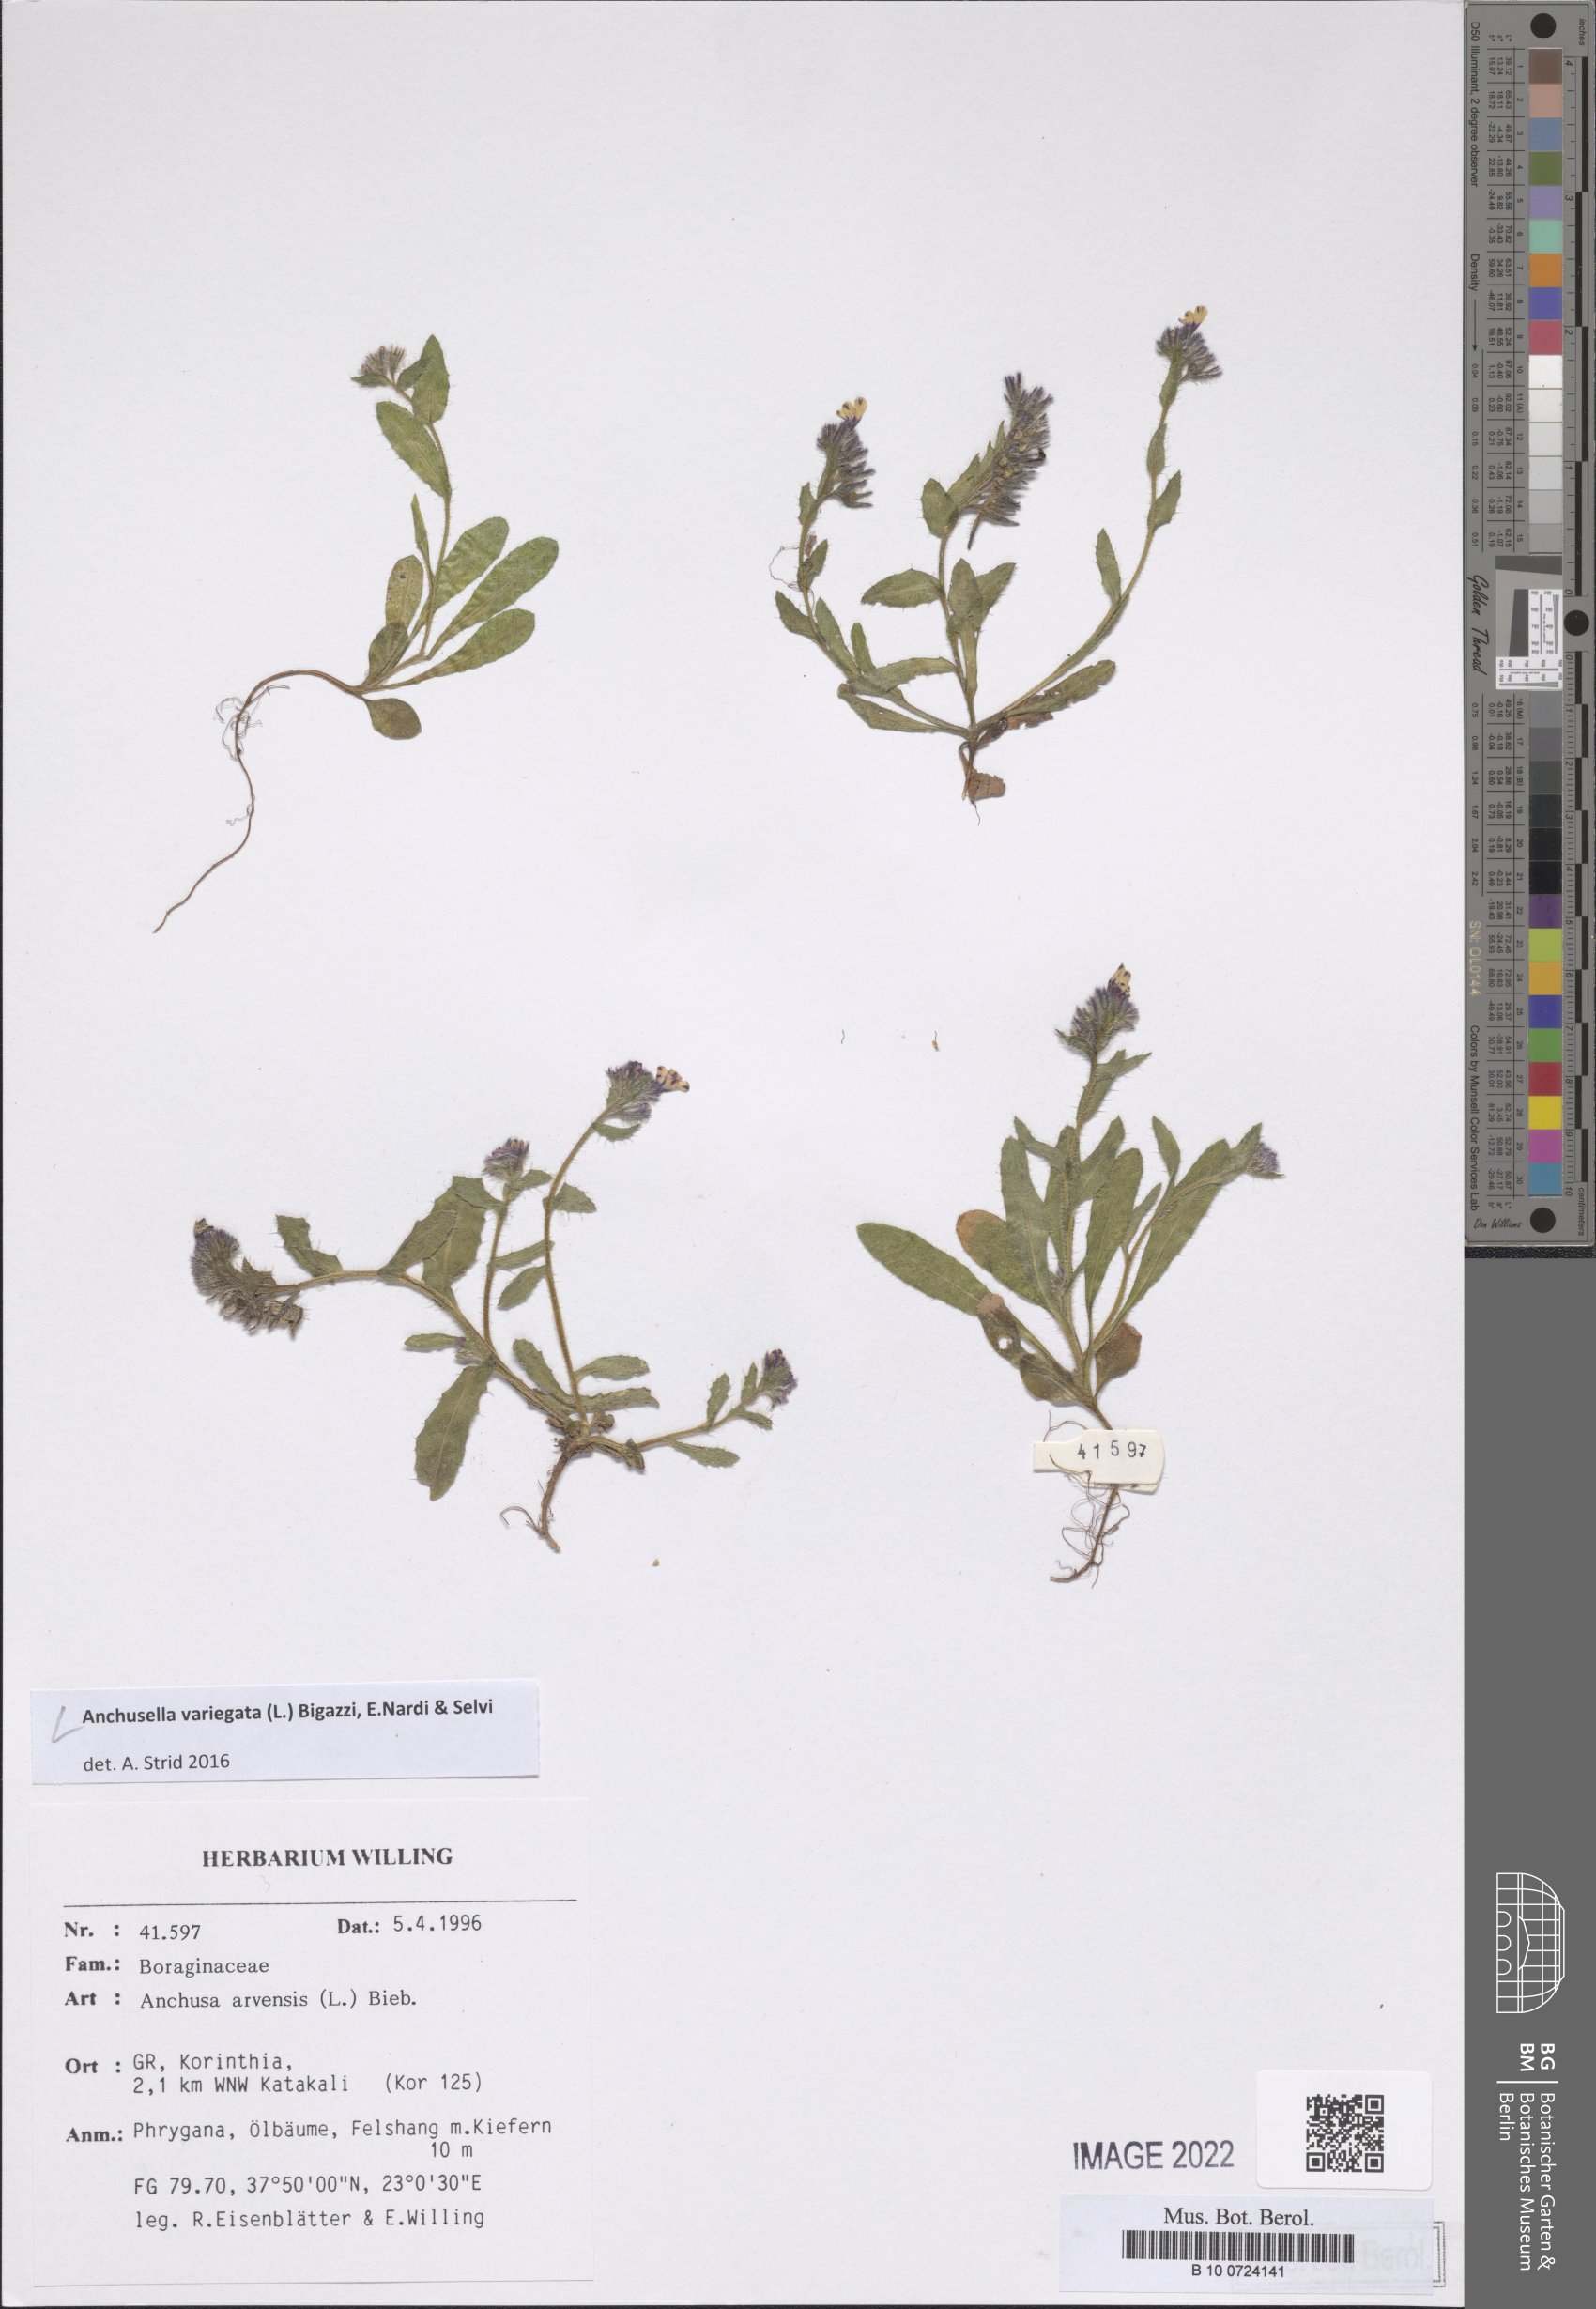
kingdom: Plantae
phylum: Tracheophyta
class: Magnoliopsida
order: Boraginales
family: Boraginaceae
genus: Anchusella
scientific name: Anchusella variegata
